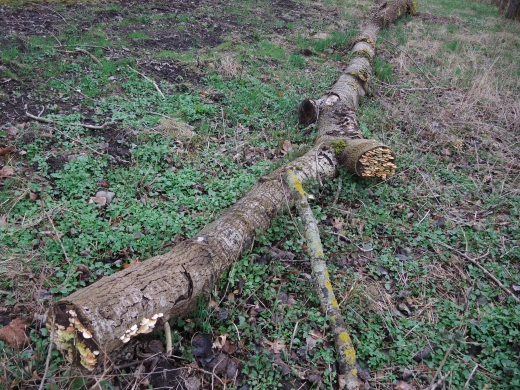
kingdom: Fungi
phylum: Basidiomycota
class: Agaricomycetes
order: Polyporales
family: Polyporaceae
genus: Trametes
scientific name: Trametes ochracea
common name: bæltet læderporesvamp
